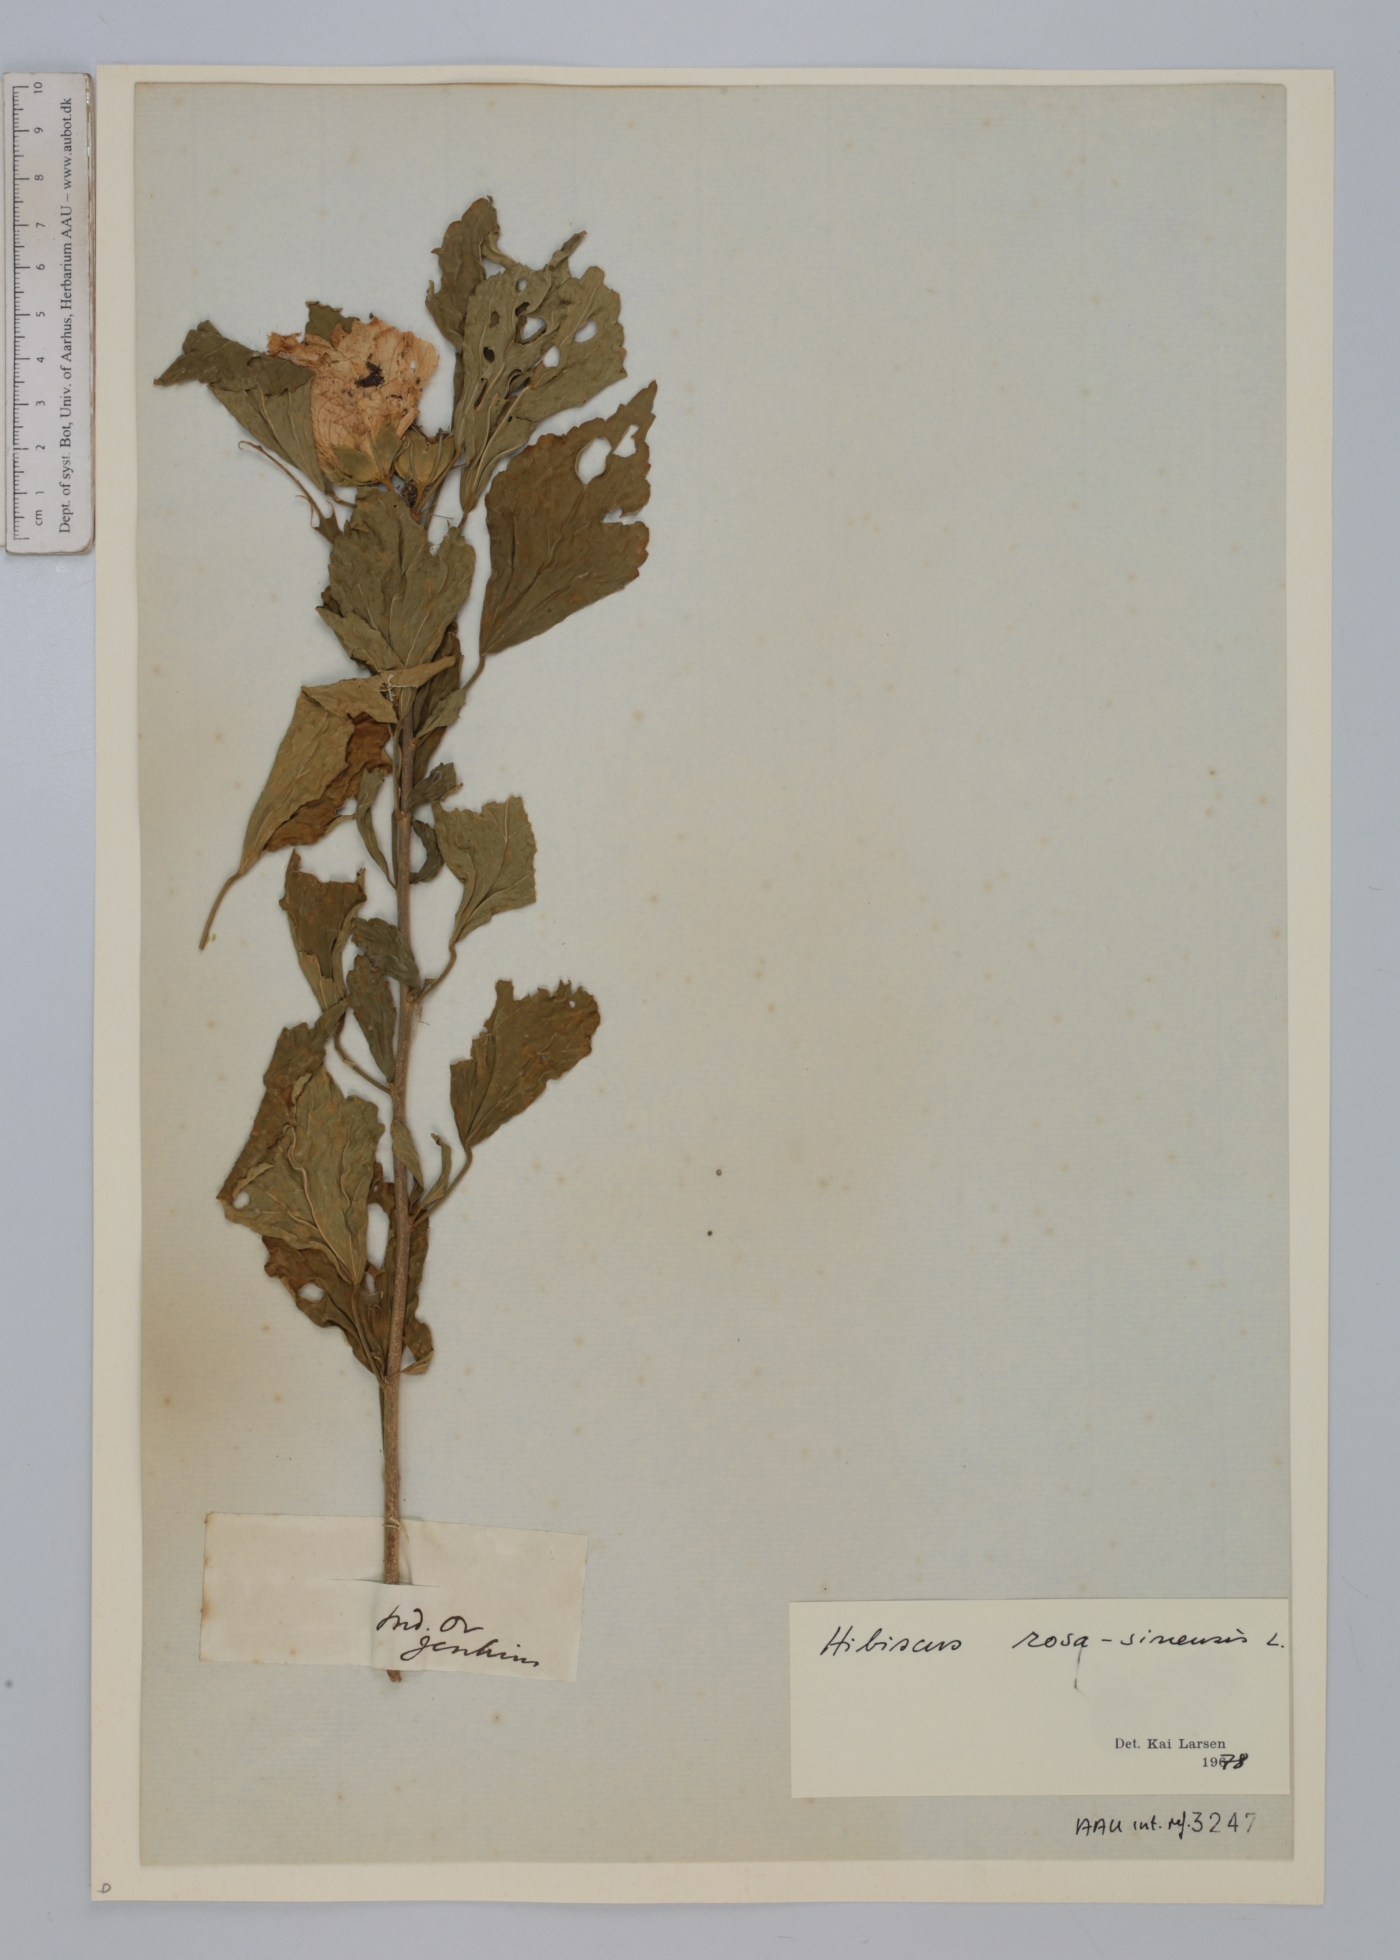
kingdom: Plantae
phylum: Tracheophyta
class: Magnoliopsida
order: Malvales
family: Malvaceae
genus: Hibiscus
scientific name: Hibiscus rosa-sinensis
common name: Hibiscus
